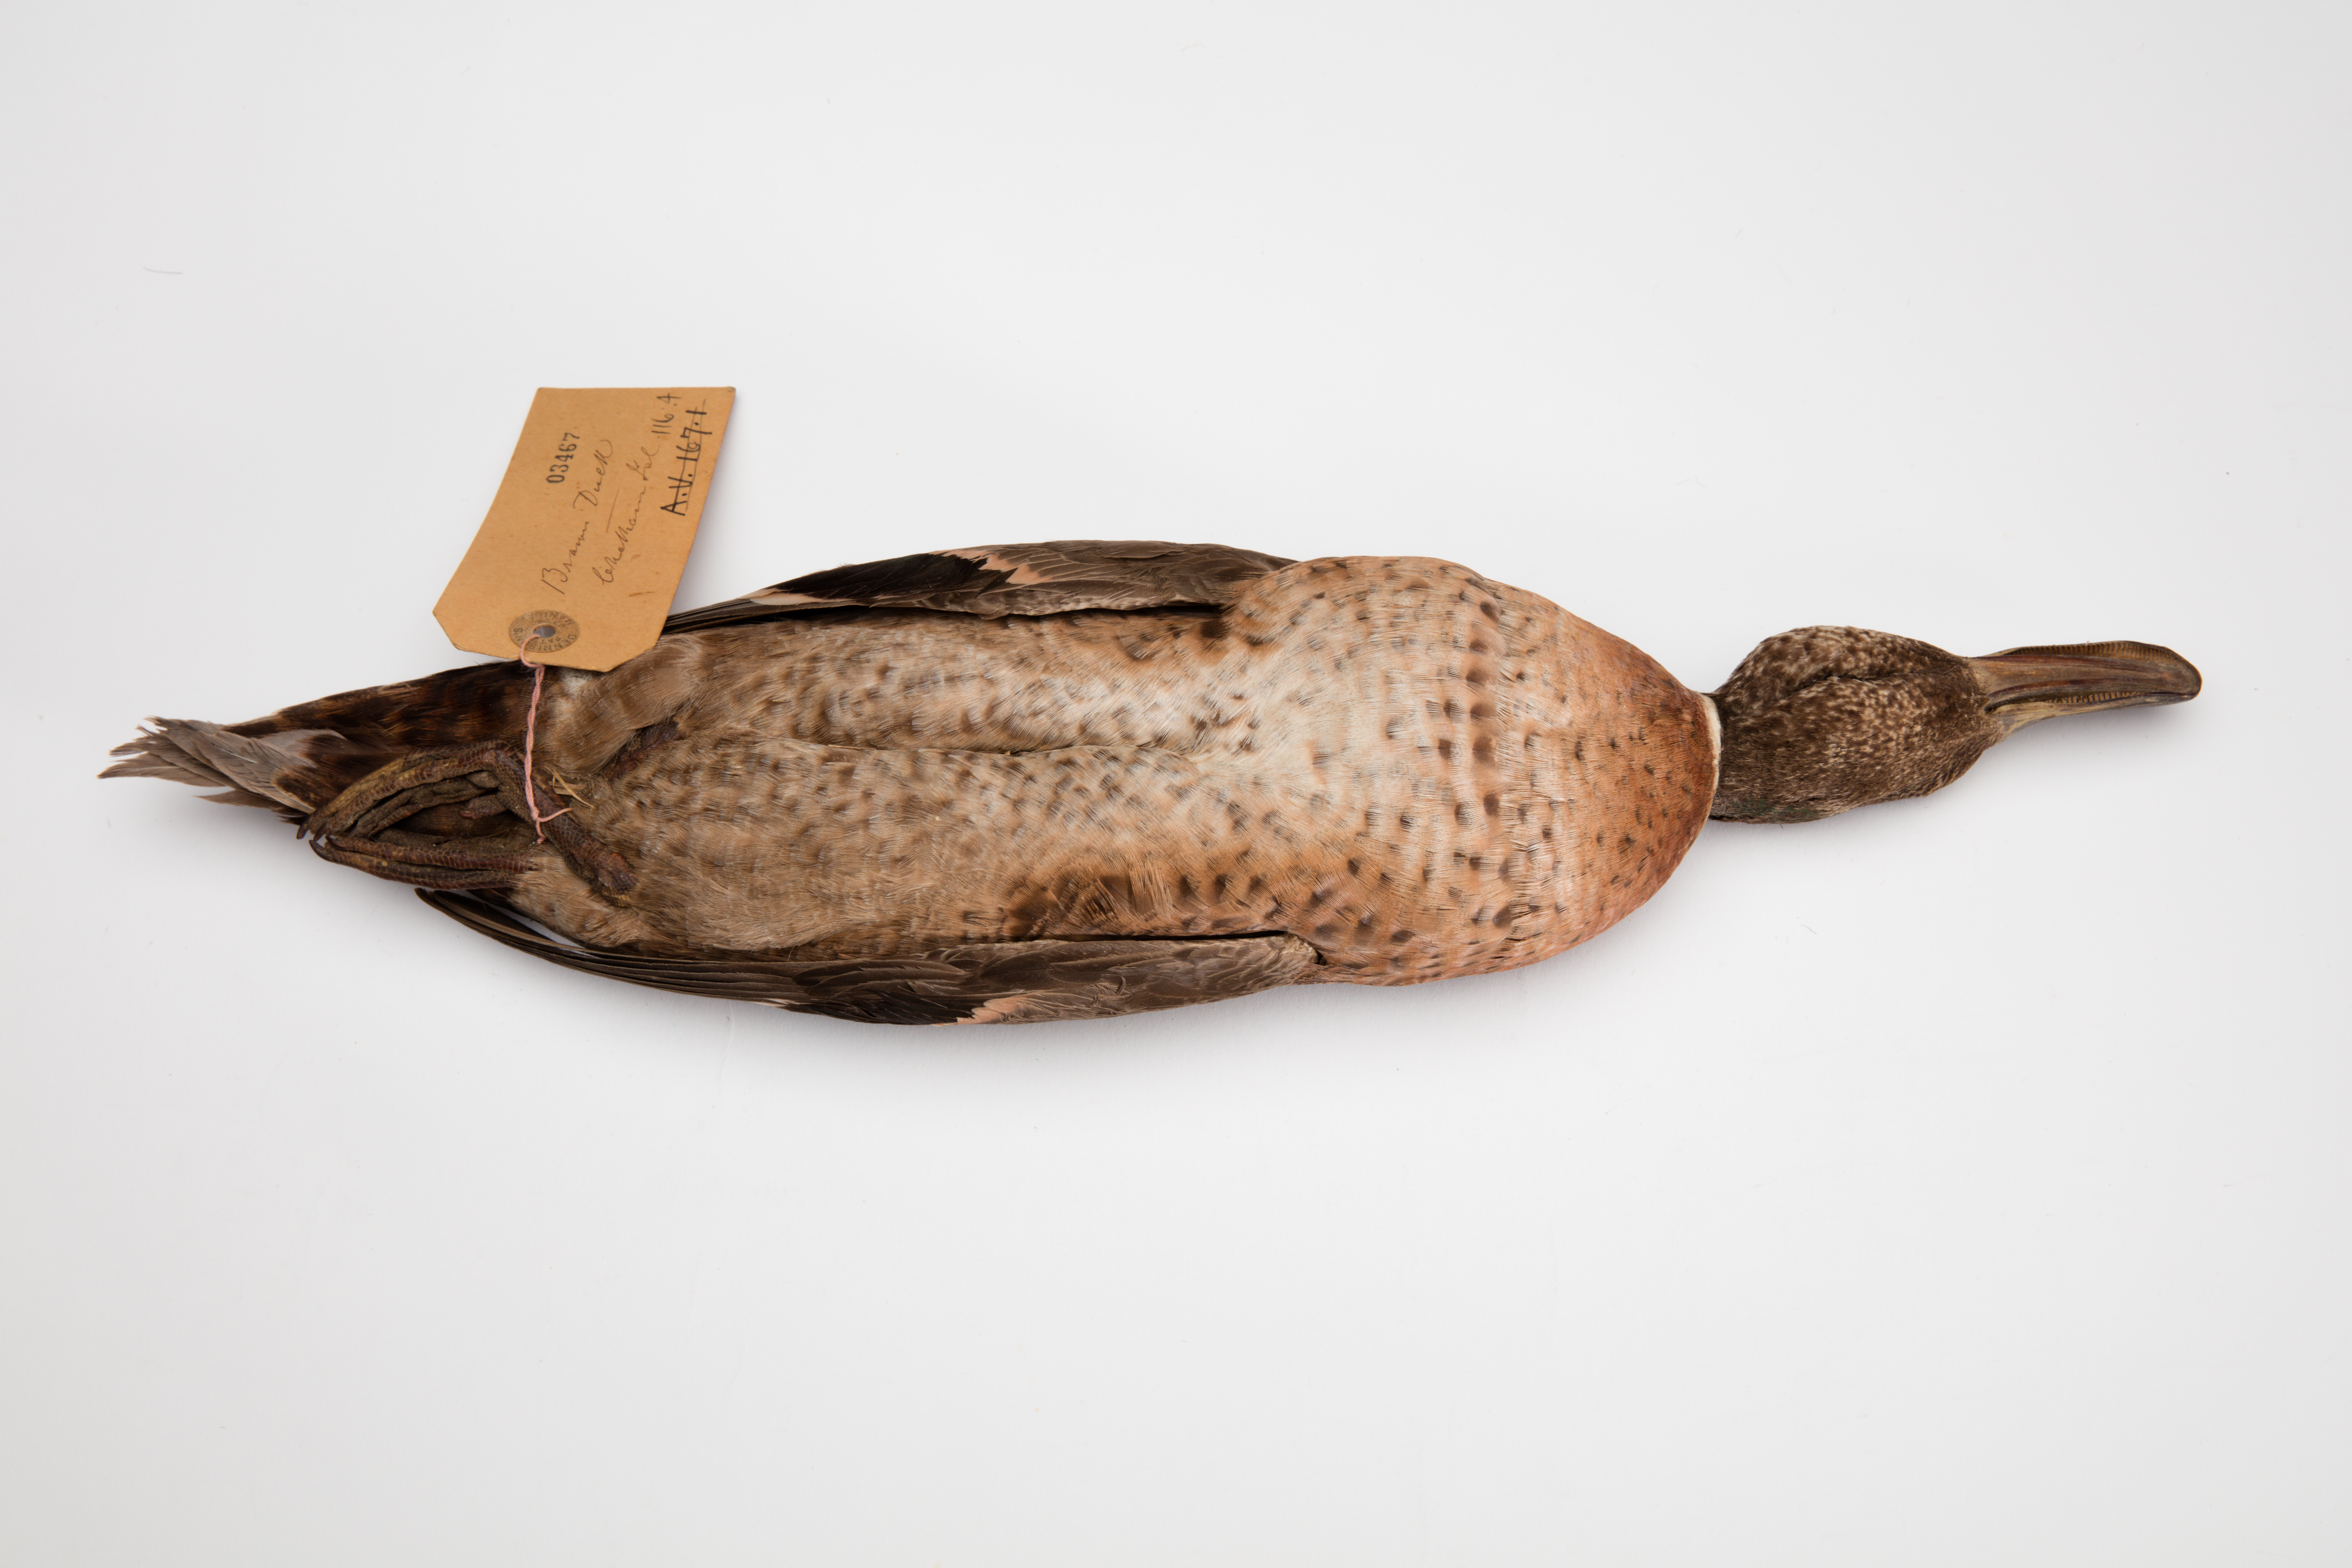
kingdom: Animalia
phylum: Chordata
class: Aves
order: Anseriformes
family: Anatidae
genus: Anas
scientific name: Anas chlorotis
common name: Brown teal
